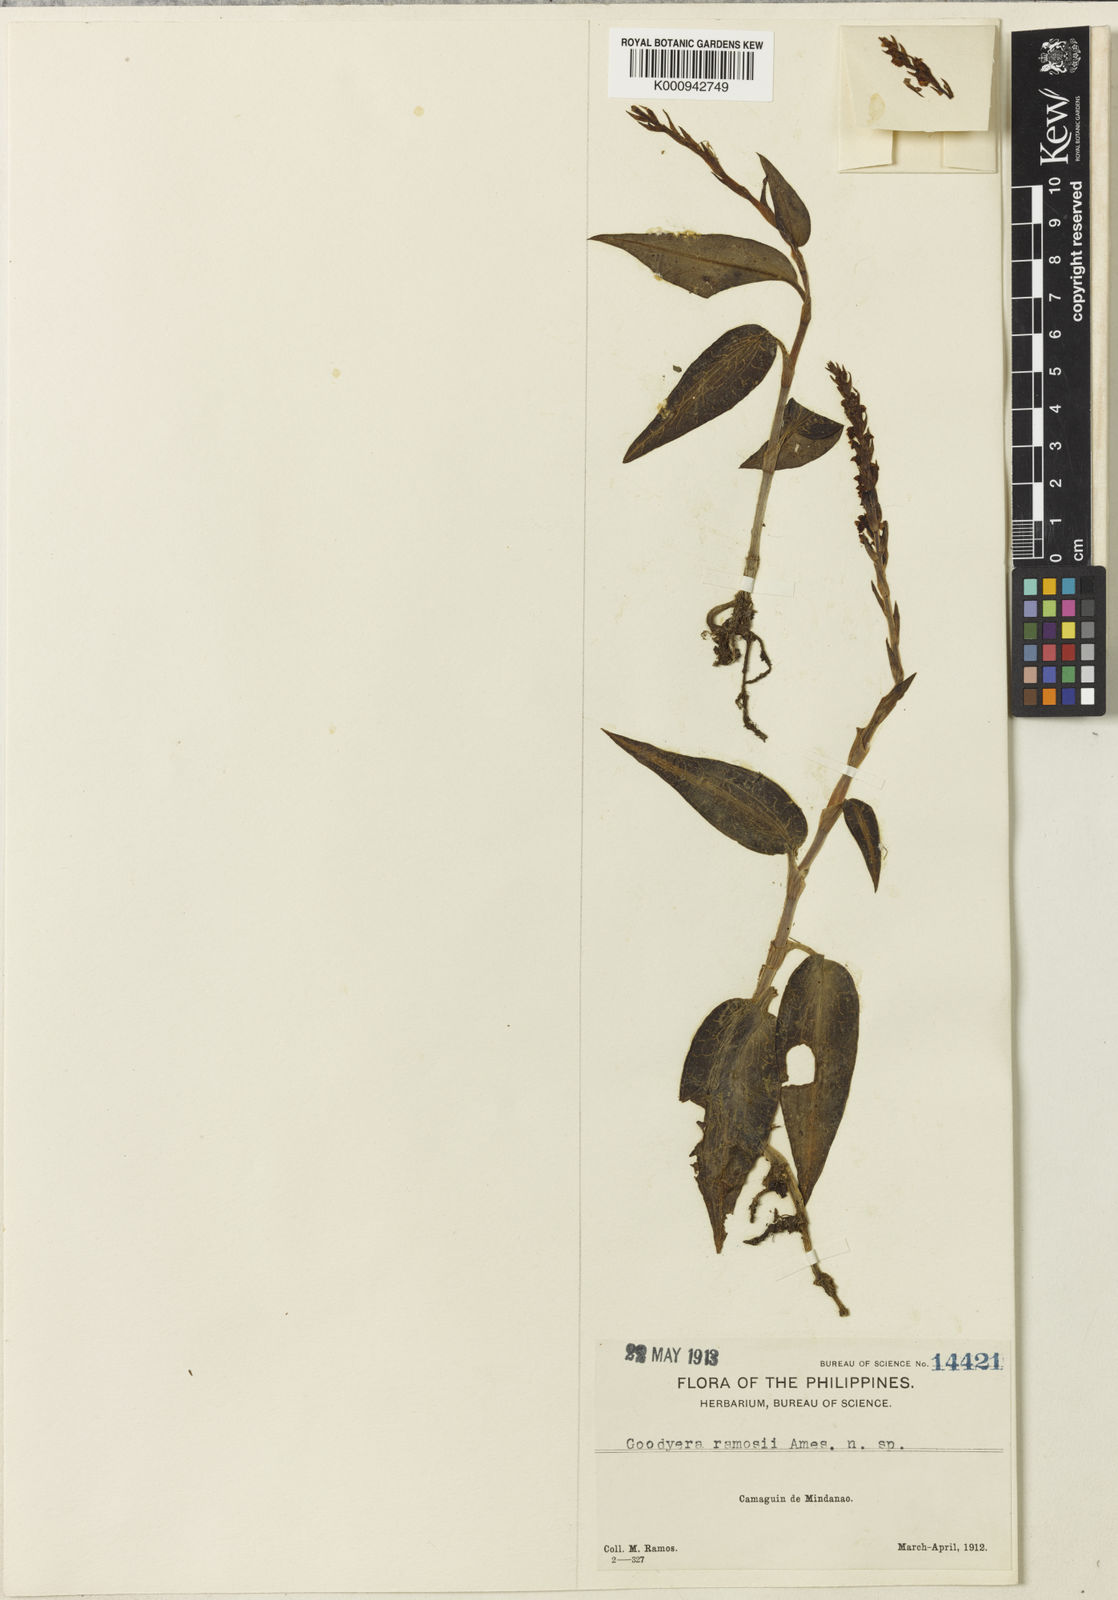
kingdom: Plantae
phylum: Tracheophyta
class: Liliopsida
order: Asparagales
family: Orchidaceae
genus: Goodyera
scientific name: Goodyera ramosii
